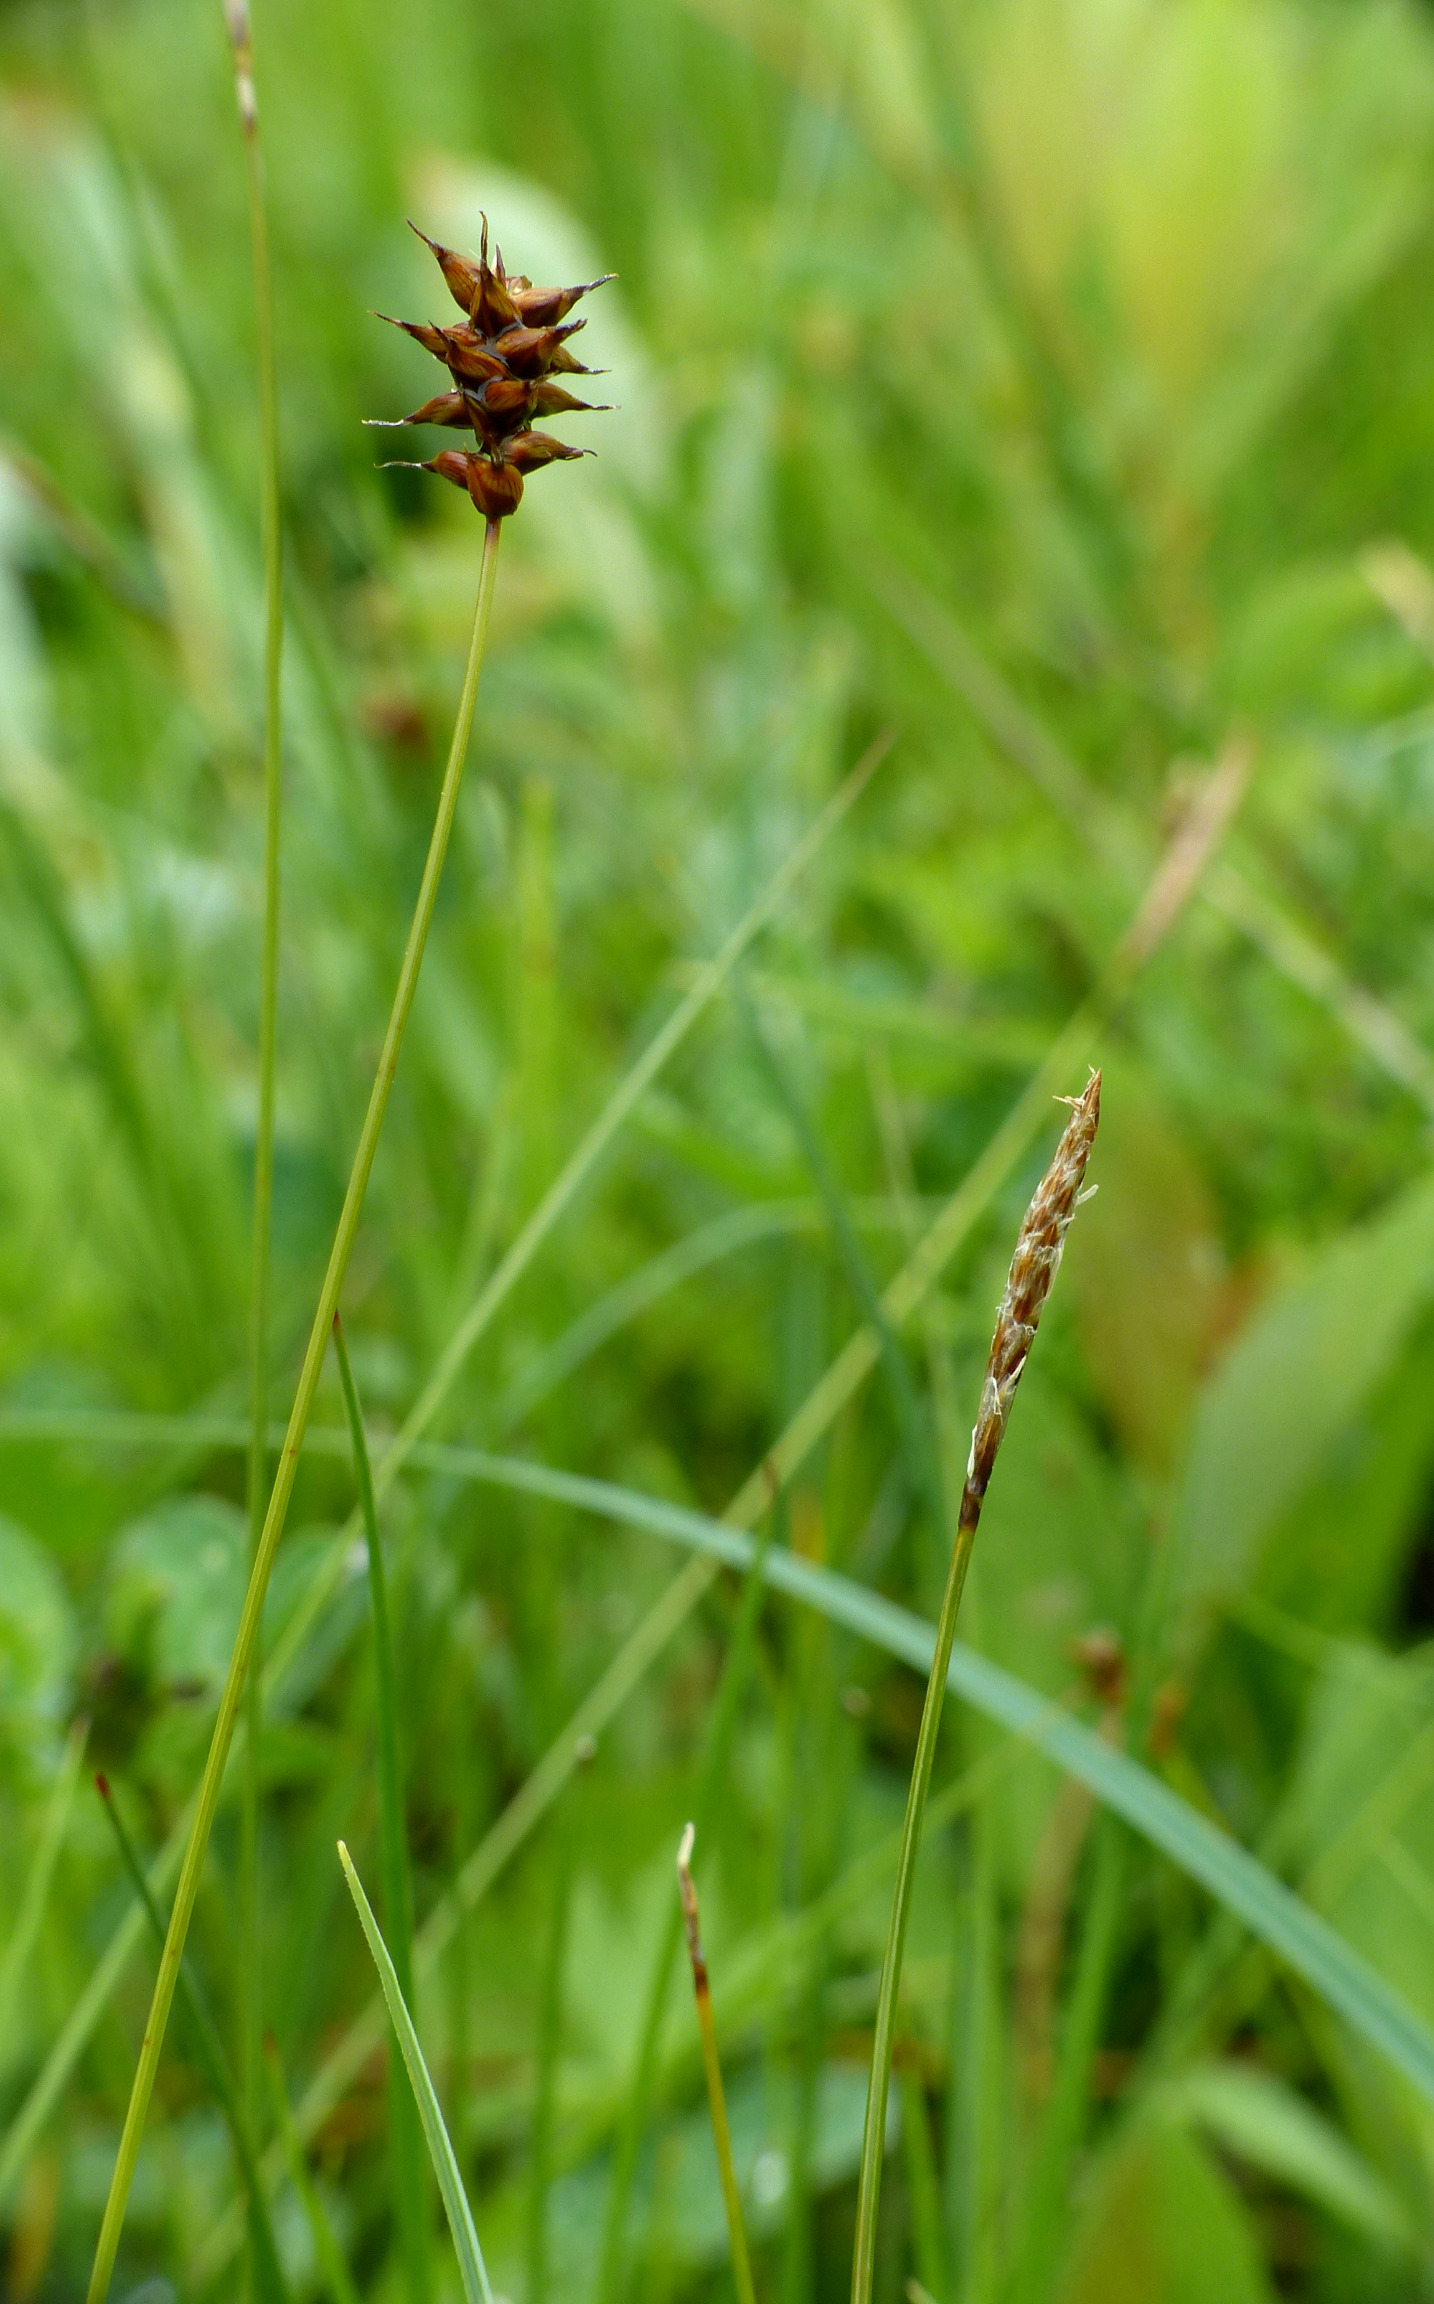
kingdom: Plantae
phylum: Tracheophyta
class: Liliopsida
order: Poales
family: Cyperaceae
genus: Carex
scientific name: Carex dioica
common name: Tvebo star
